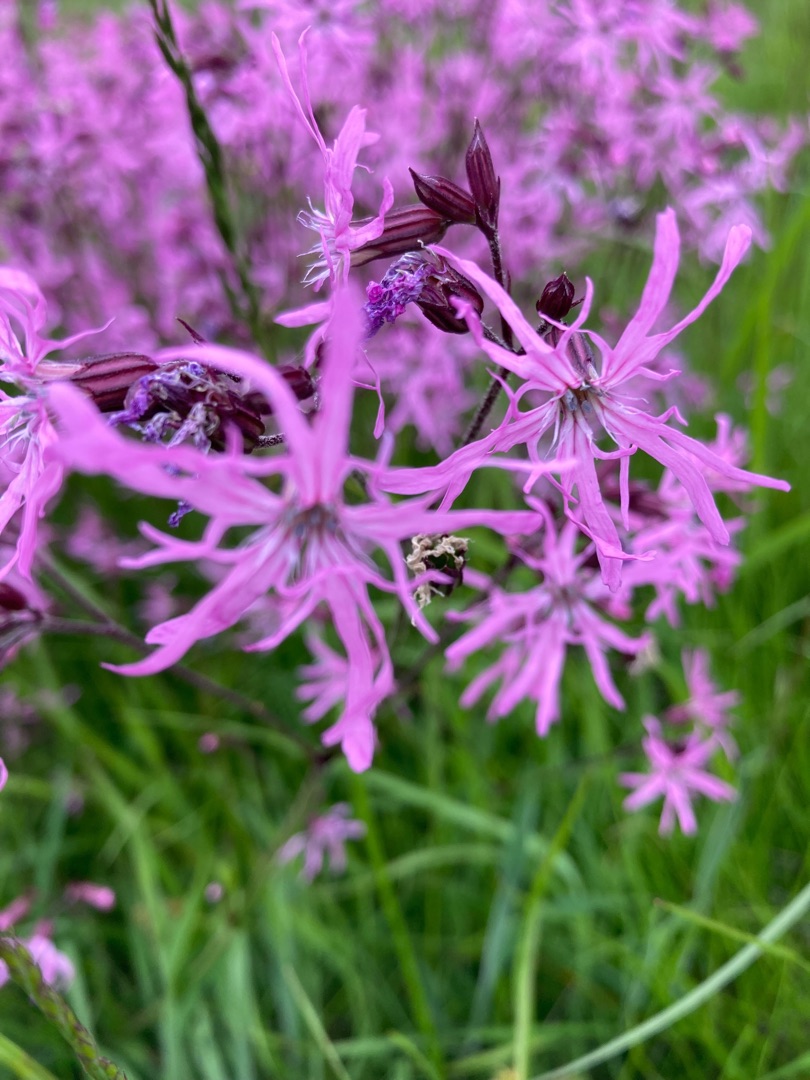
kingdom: Plantae
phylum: Tracheophyta
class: Magnoliopsida
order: Caryophyllales
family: Caryophyllaceae
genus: Silene
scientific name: Silene flos-cuculi
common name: Trævlekrone
